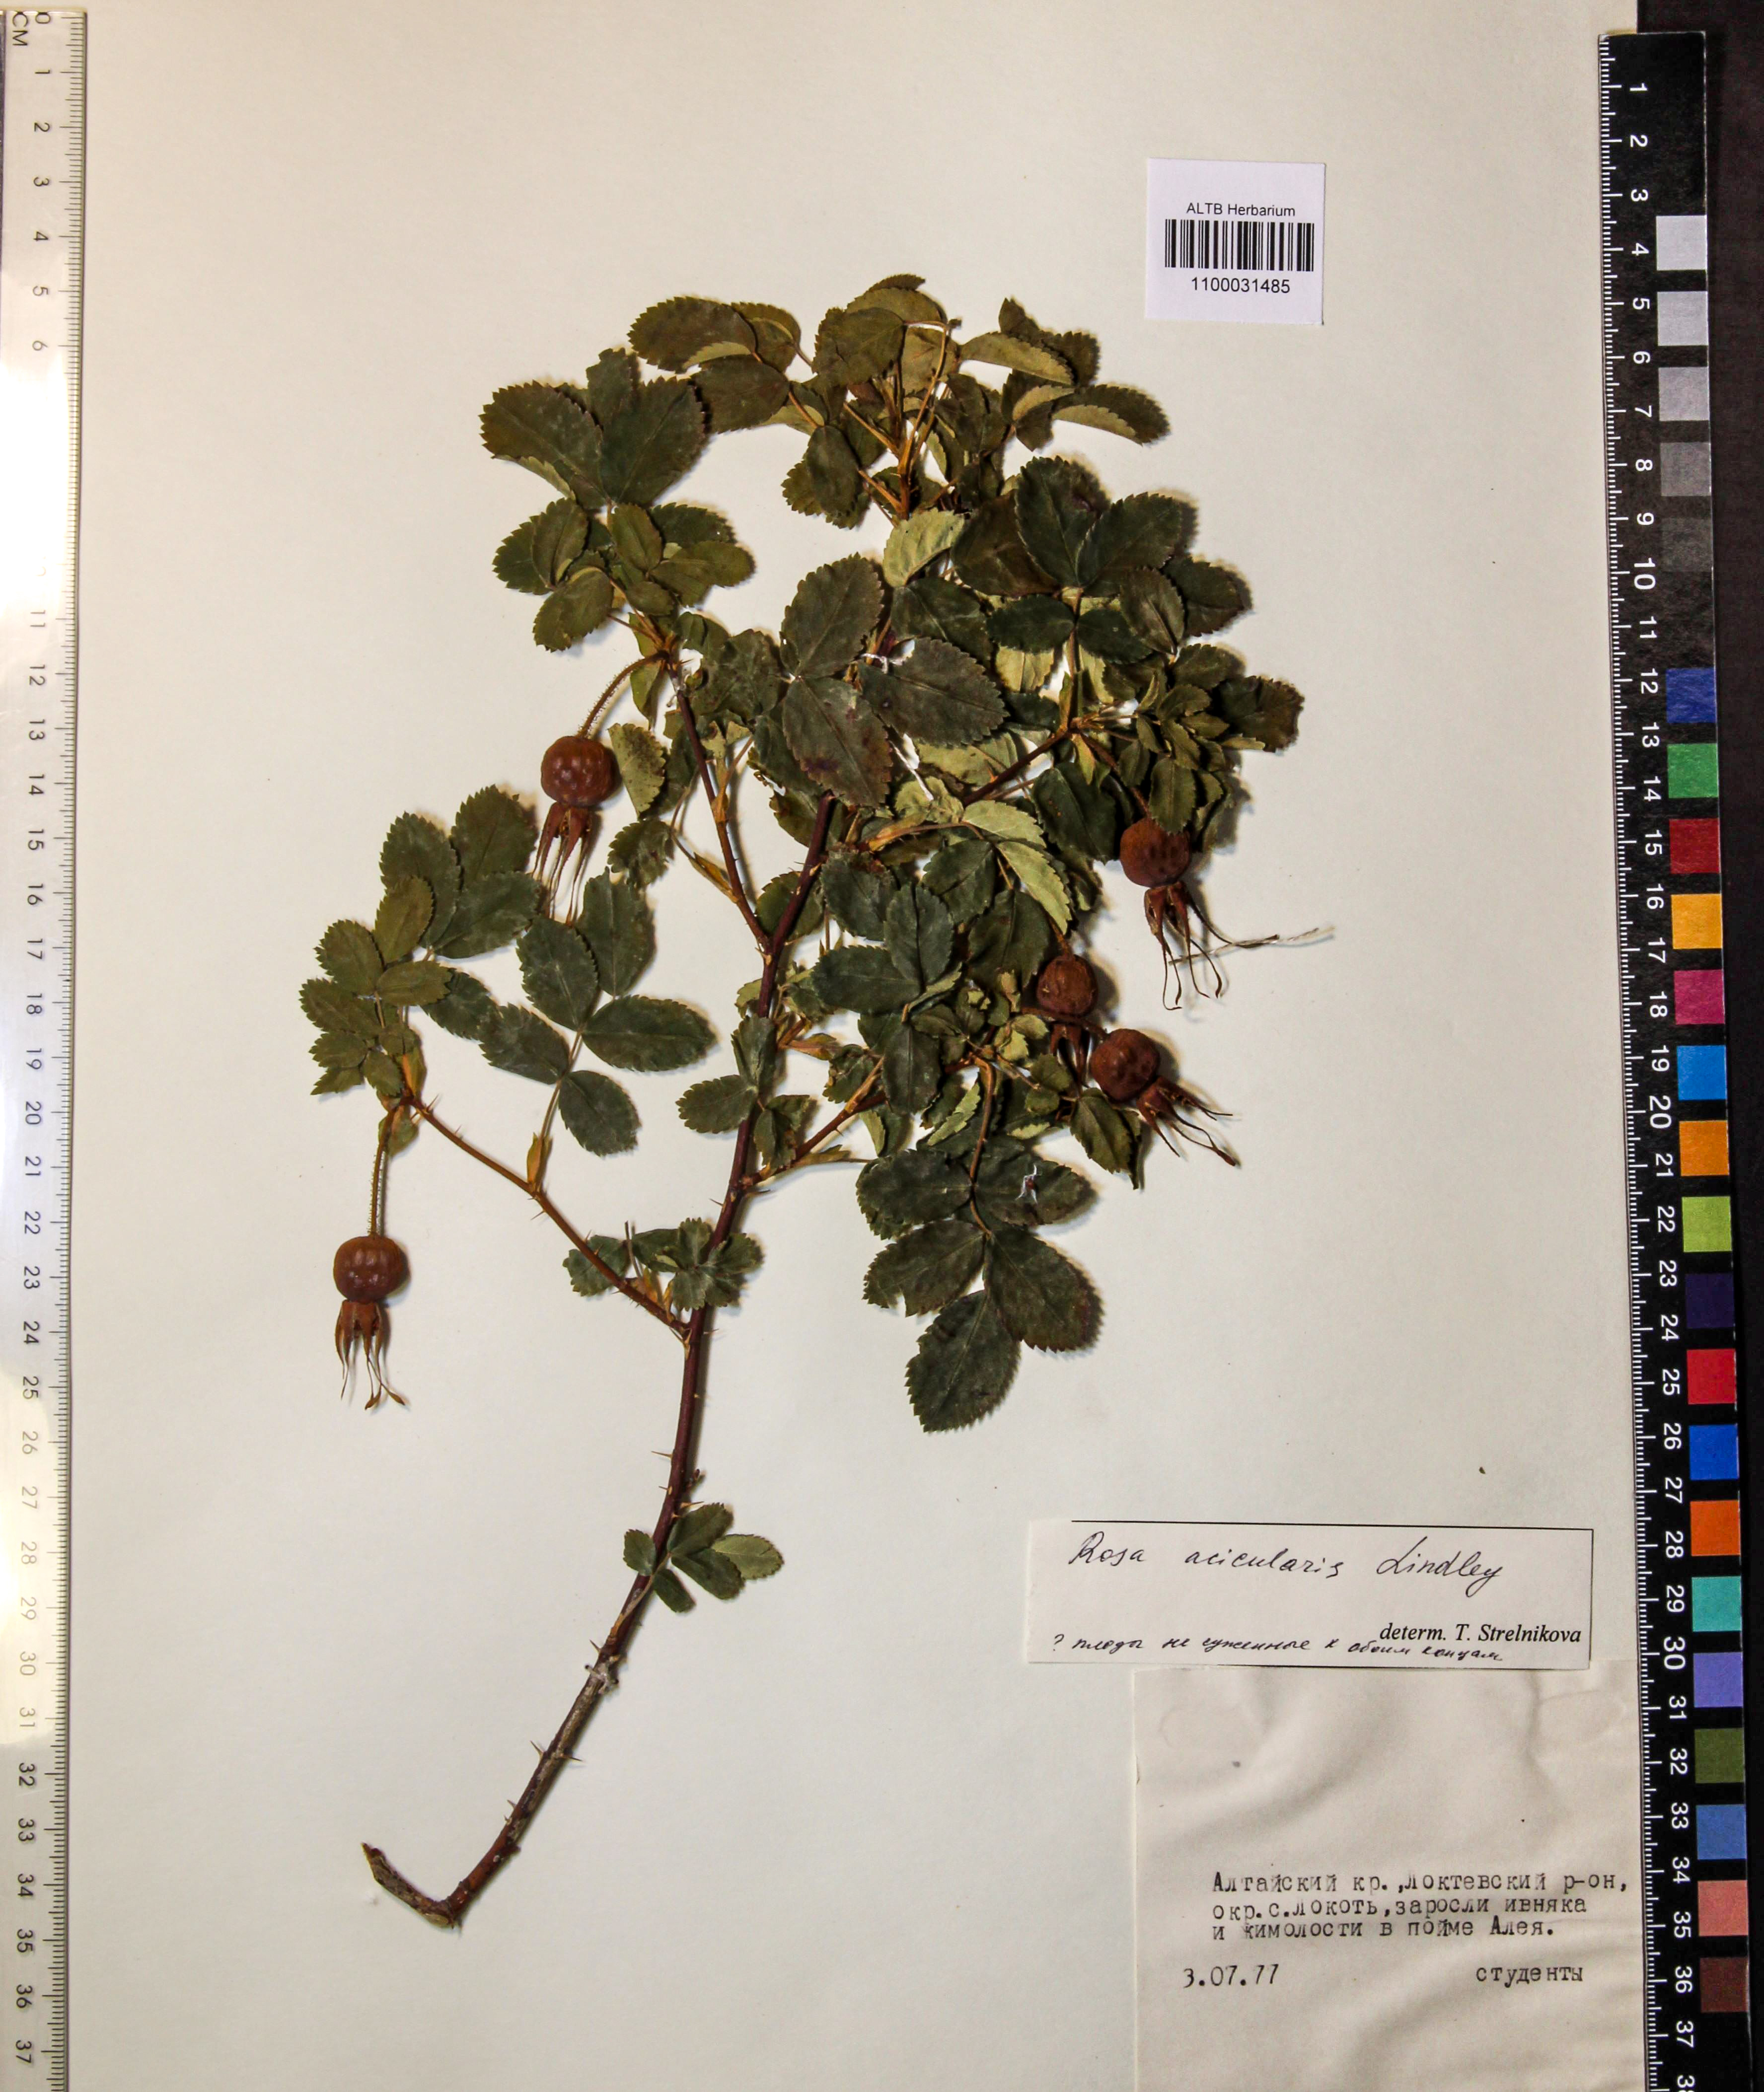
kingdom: Plantae
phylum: Tracheophyta
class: Magnoliopsida
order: Rosales
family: Rosaceae
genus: Rosa
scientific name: Rosa acicularis
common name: Prickly rose
